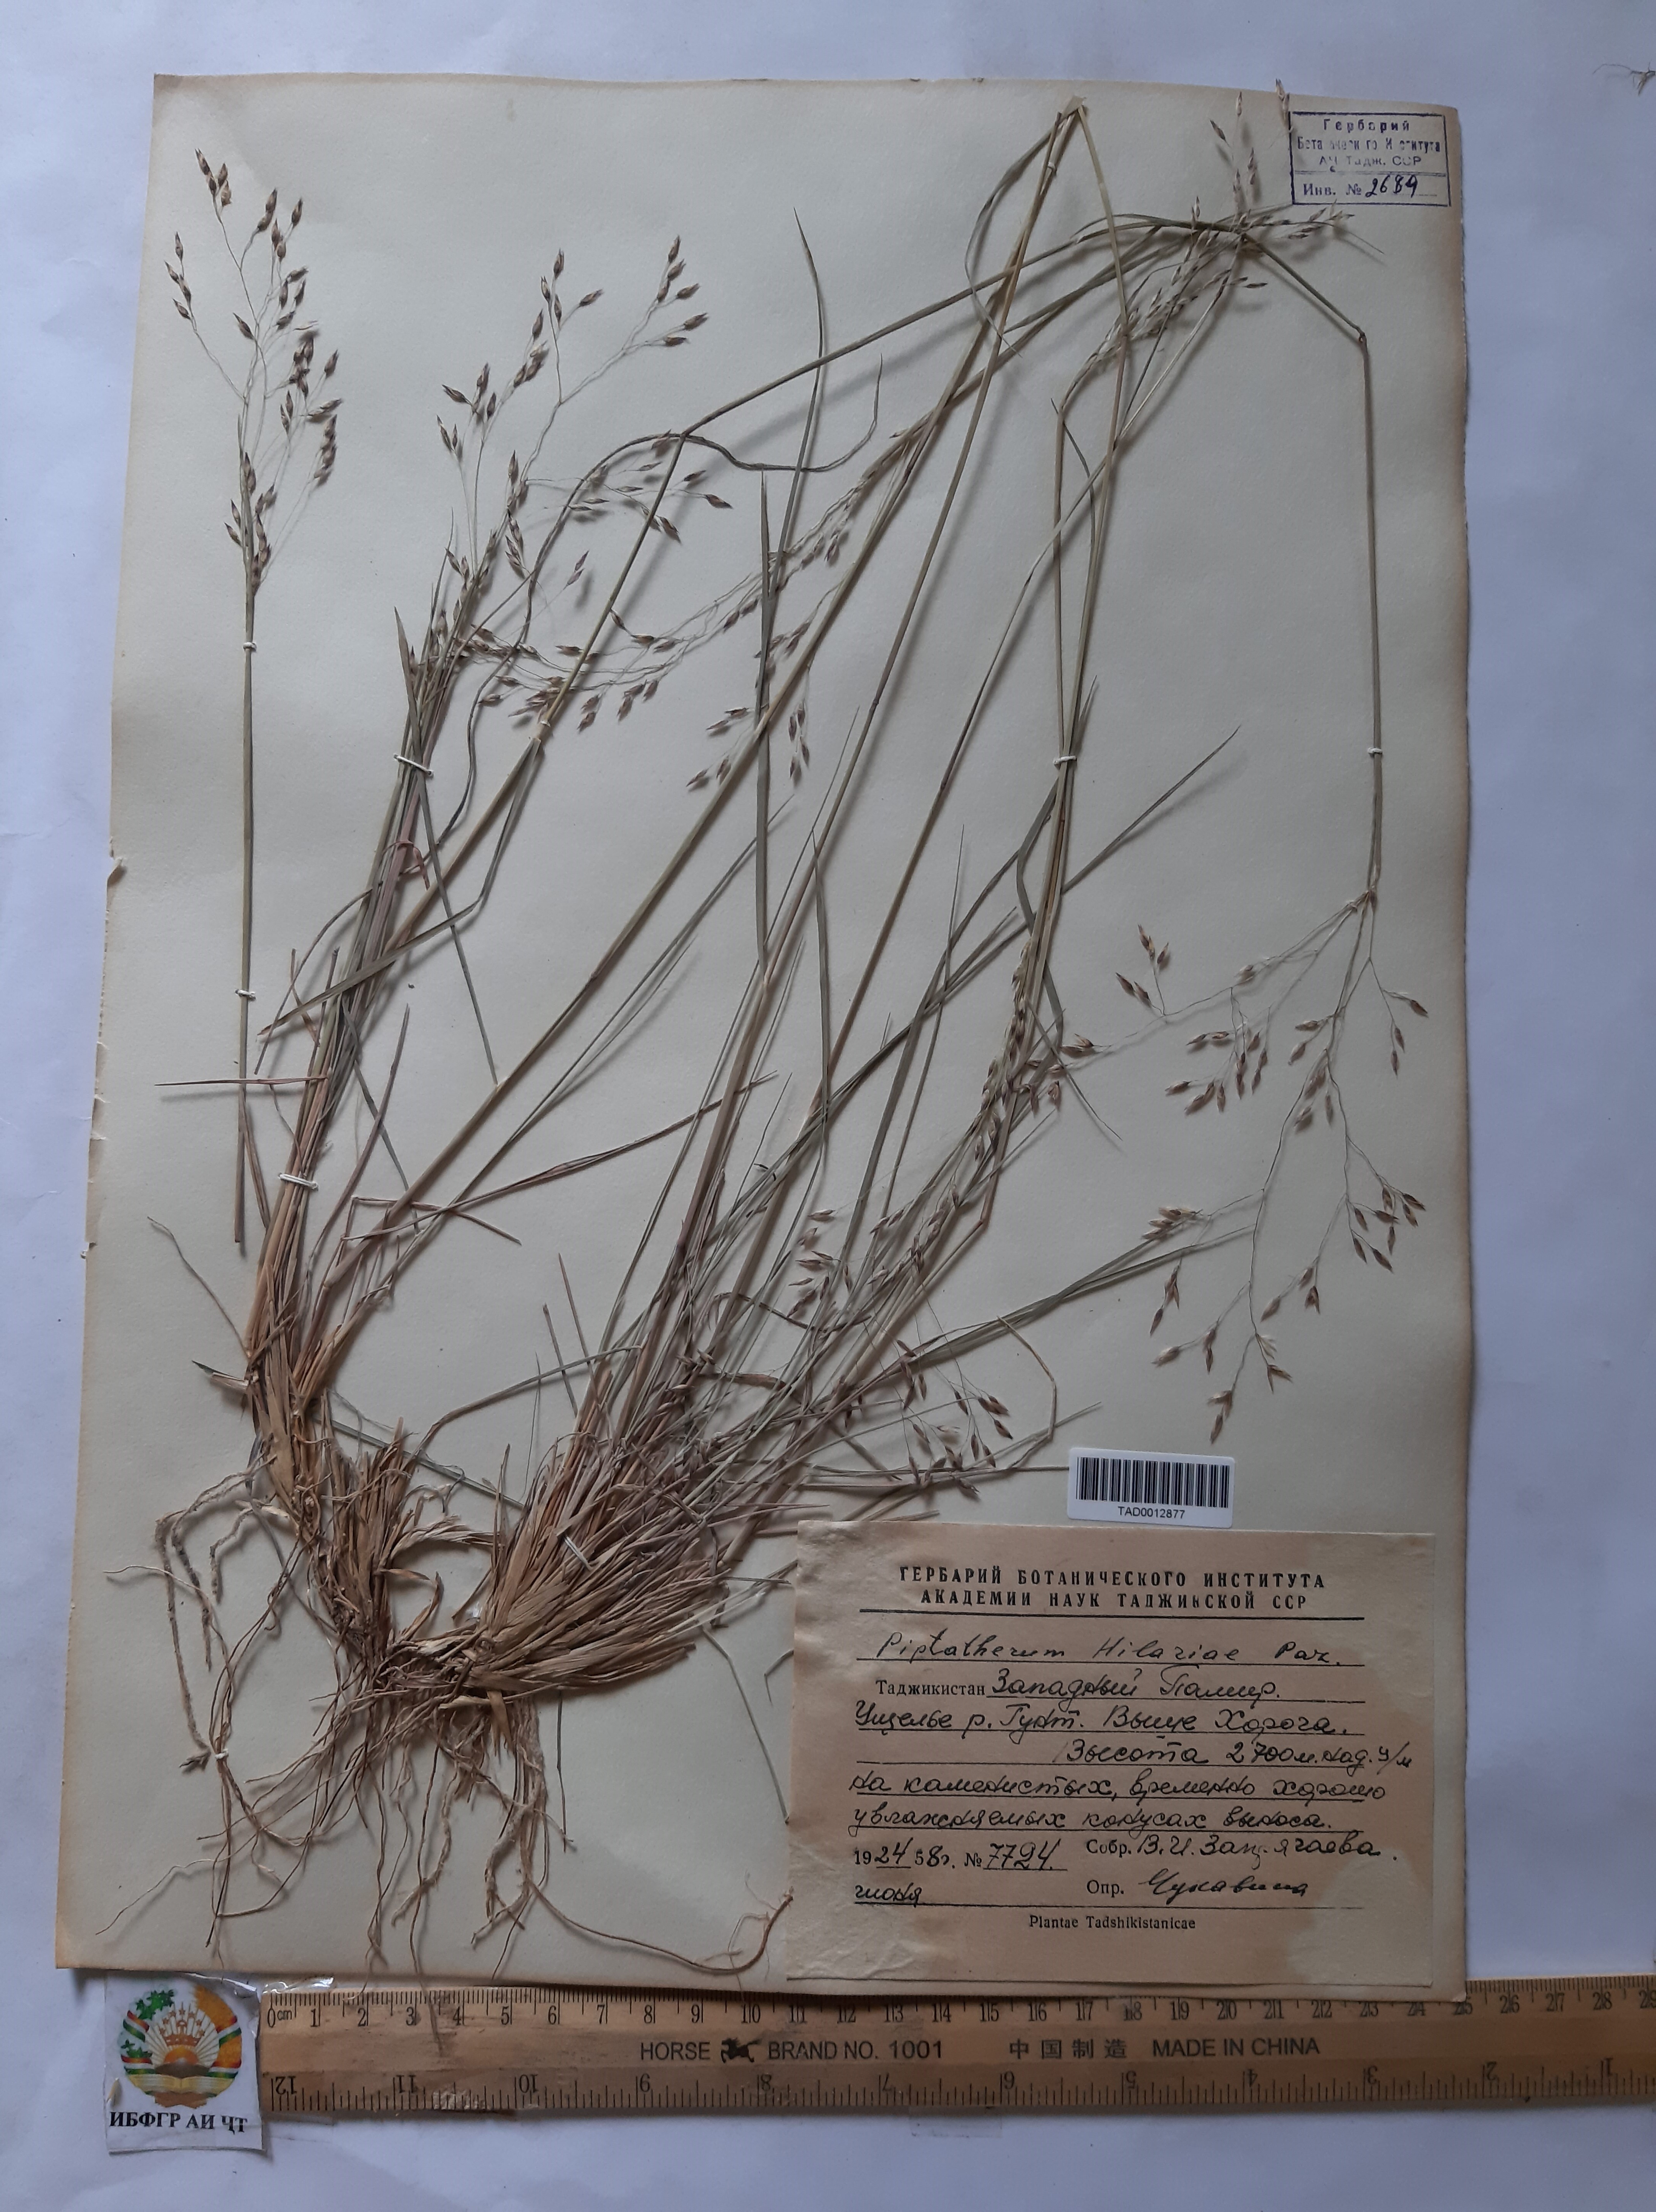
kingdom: Plantae
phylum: Tracheophyta
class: Liliopsida
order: Poales
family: Poaceae
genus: Piptatherum
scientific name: Piptatherum hilariae
